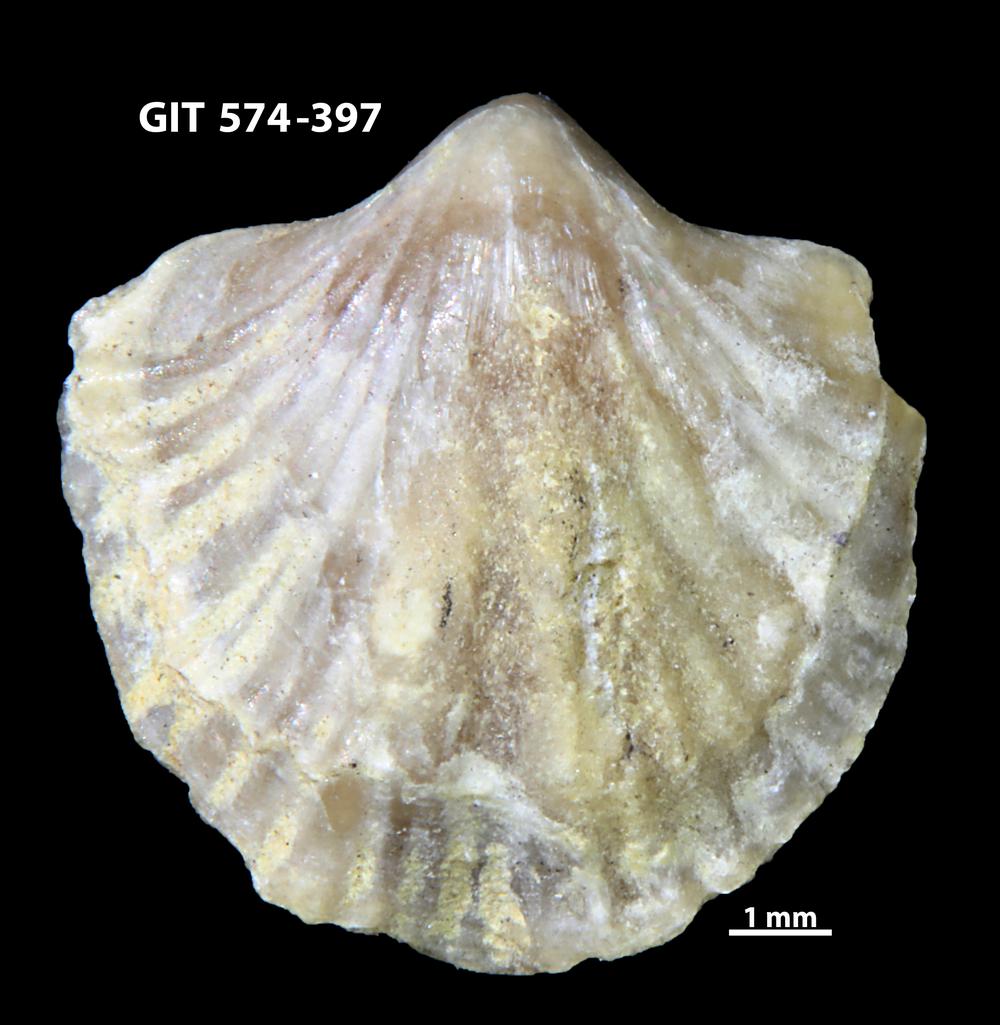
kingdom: Animalia
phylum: Brachiopoda
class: Rhynchonellata
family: Atrypinidae
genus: Eospirigerina
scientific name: Eospirigerina sulevi
